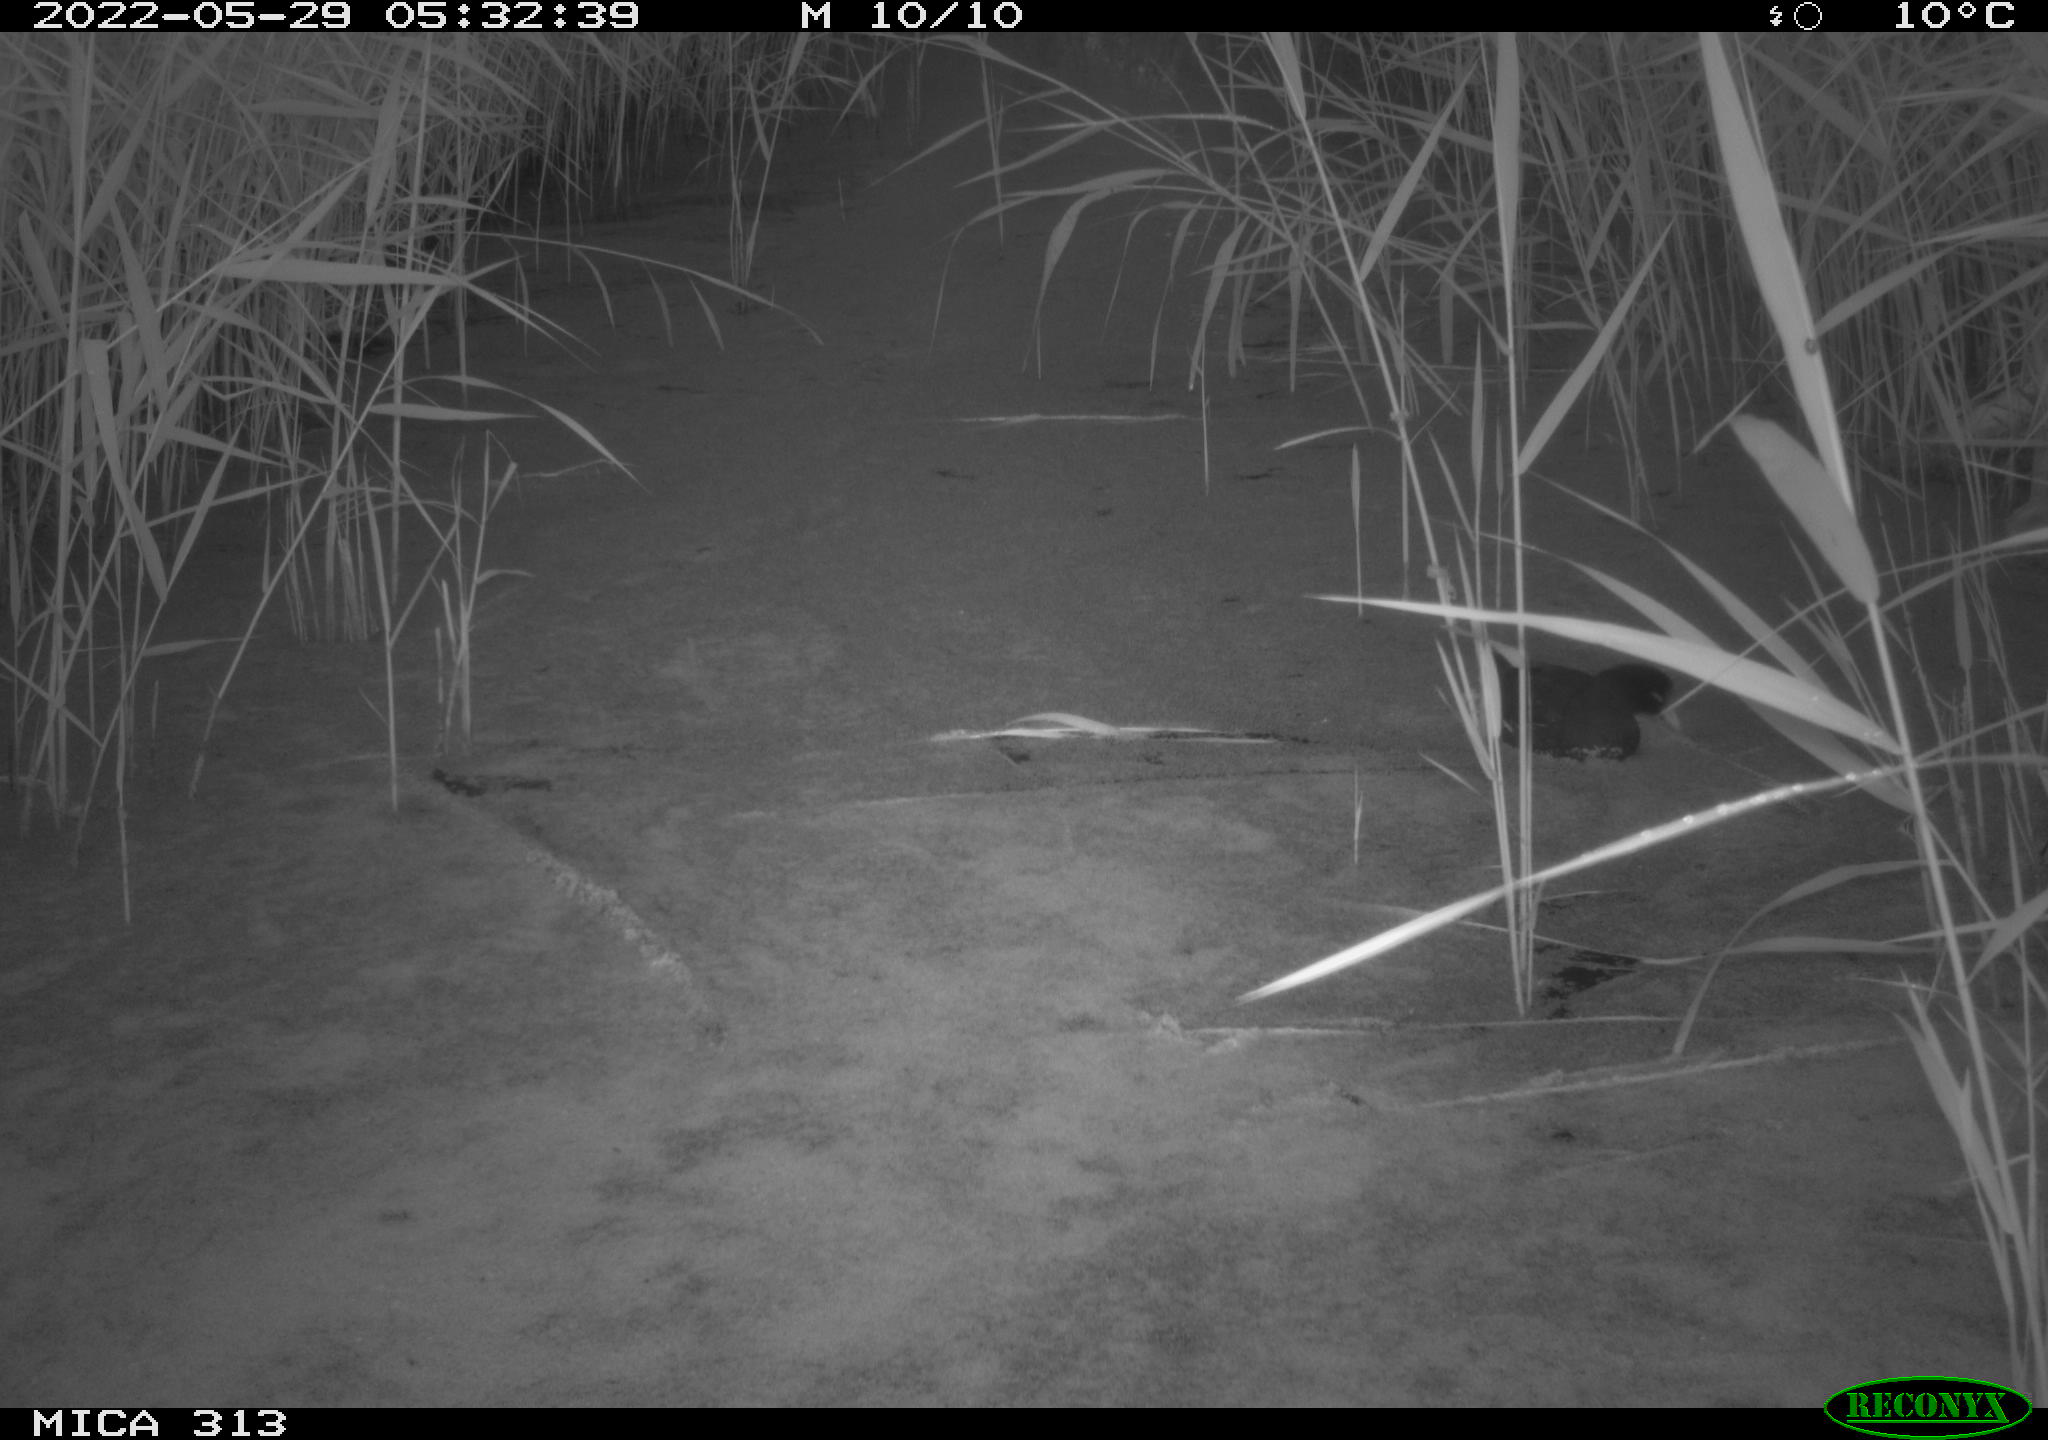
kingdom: Animalia
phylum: Chordata
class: Aves
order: Gruiformes
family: Rallidae
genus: Gallinula
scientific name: Gallinula chloropus
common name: Common moorhen
